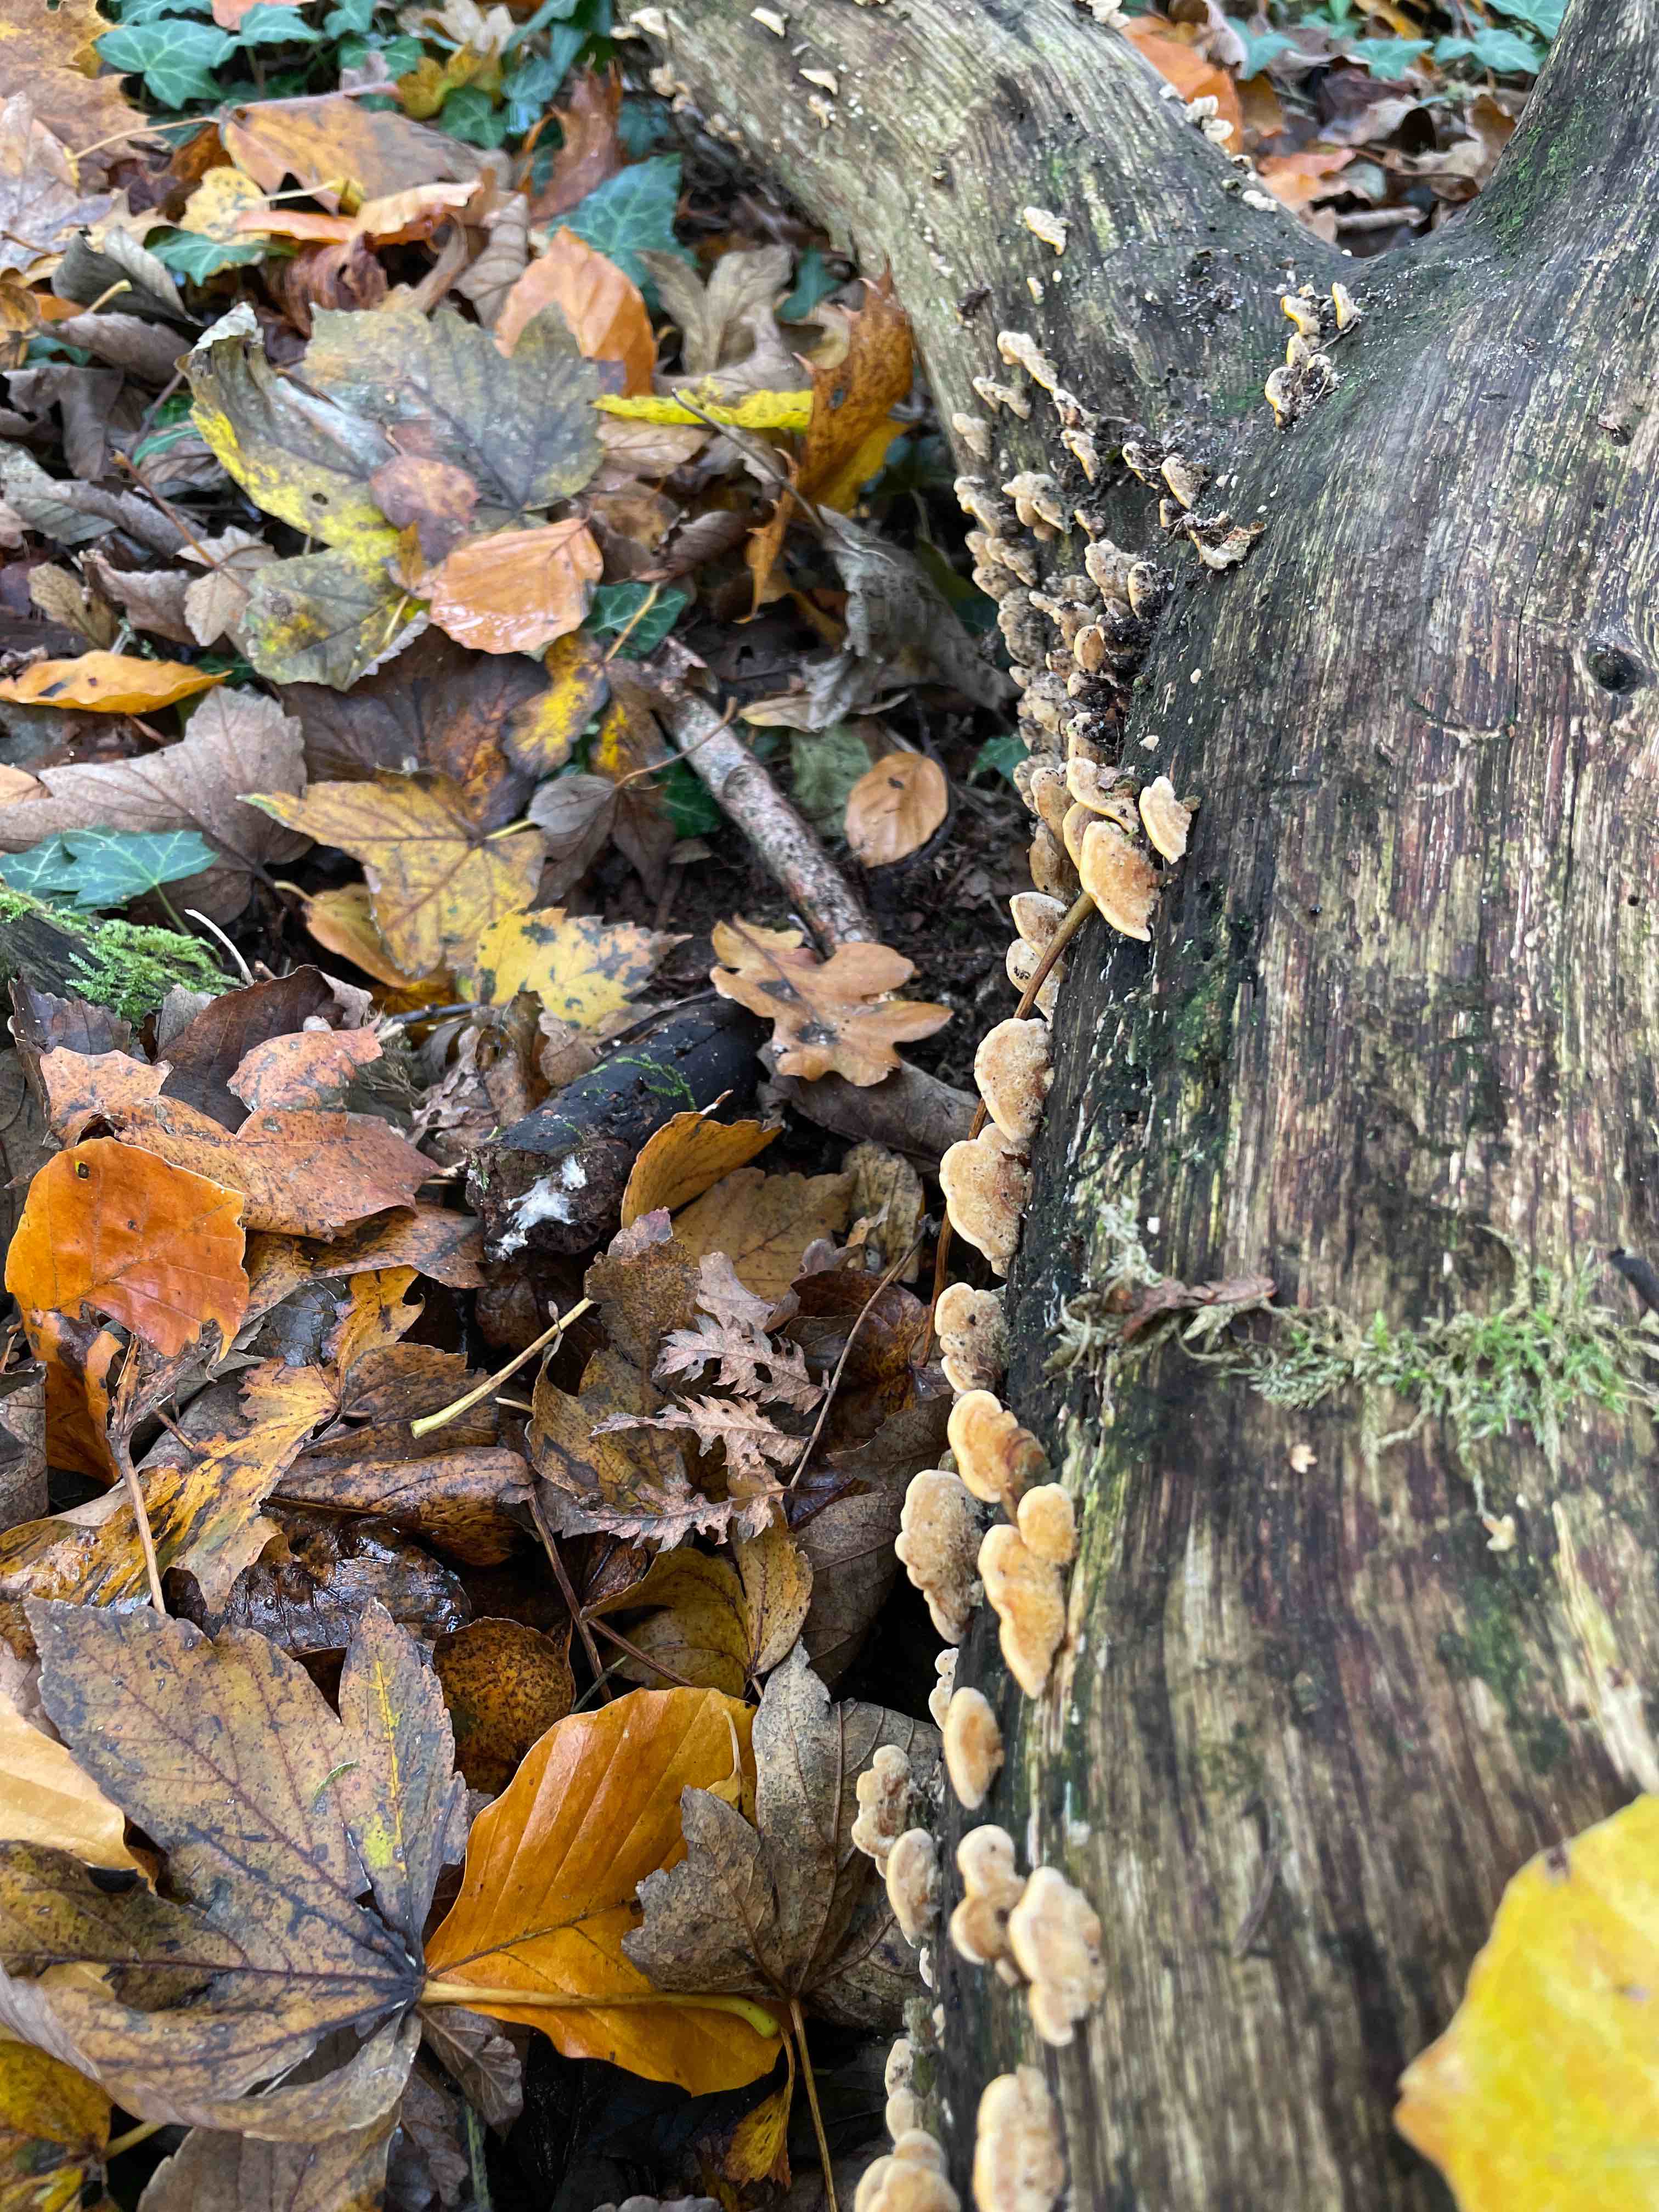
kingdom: Fungi
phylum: Basidiomycota
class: Agaricomycetes
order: Russulales
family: Stereaceae
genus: Stereum
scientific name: Stereum hirsutum
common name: håret lædersvamp
